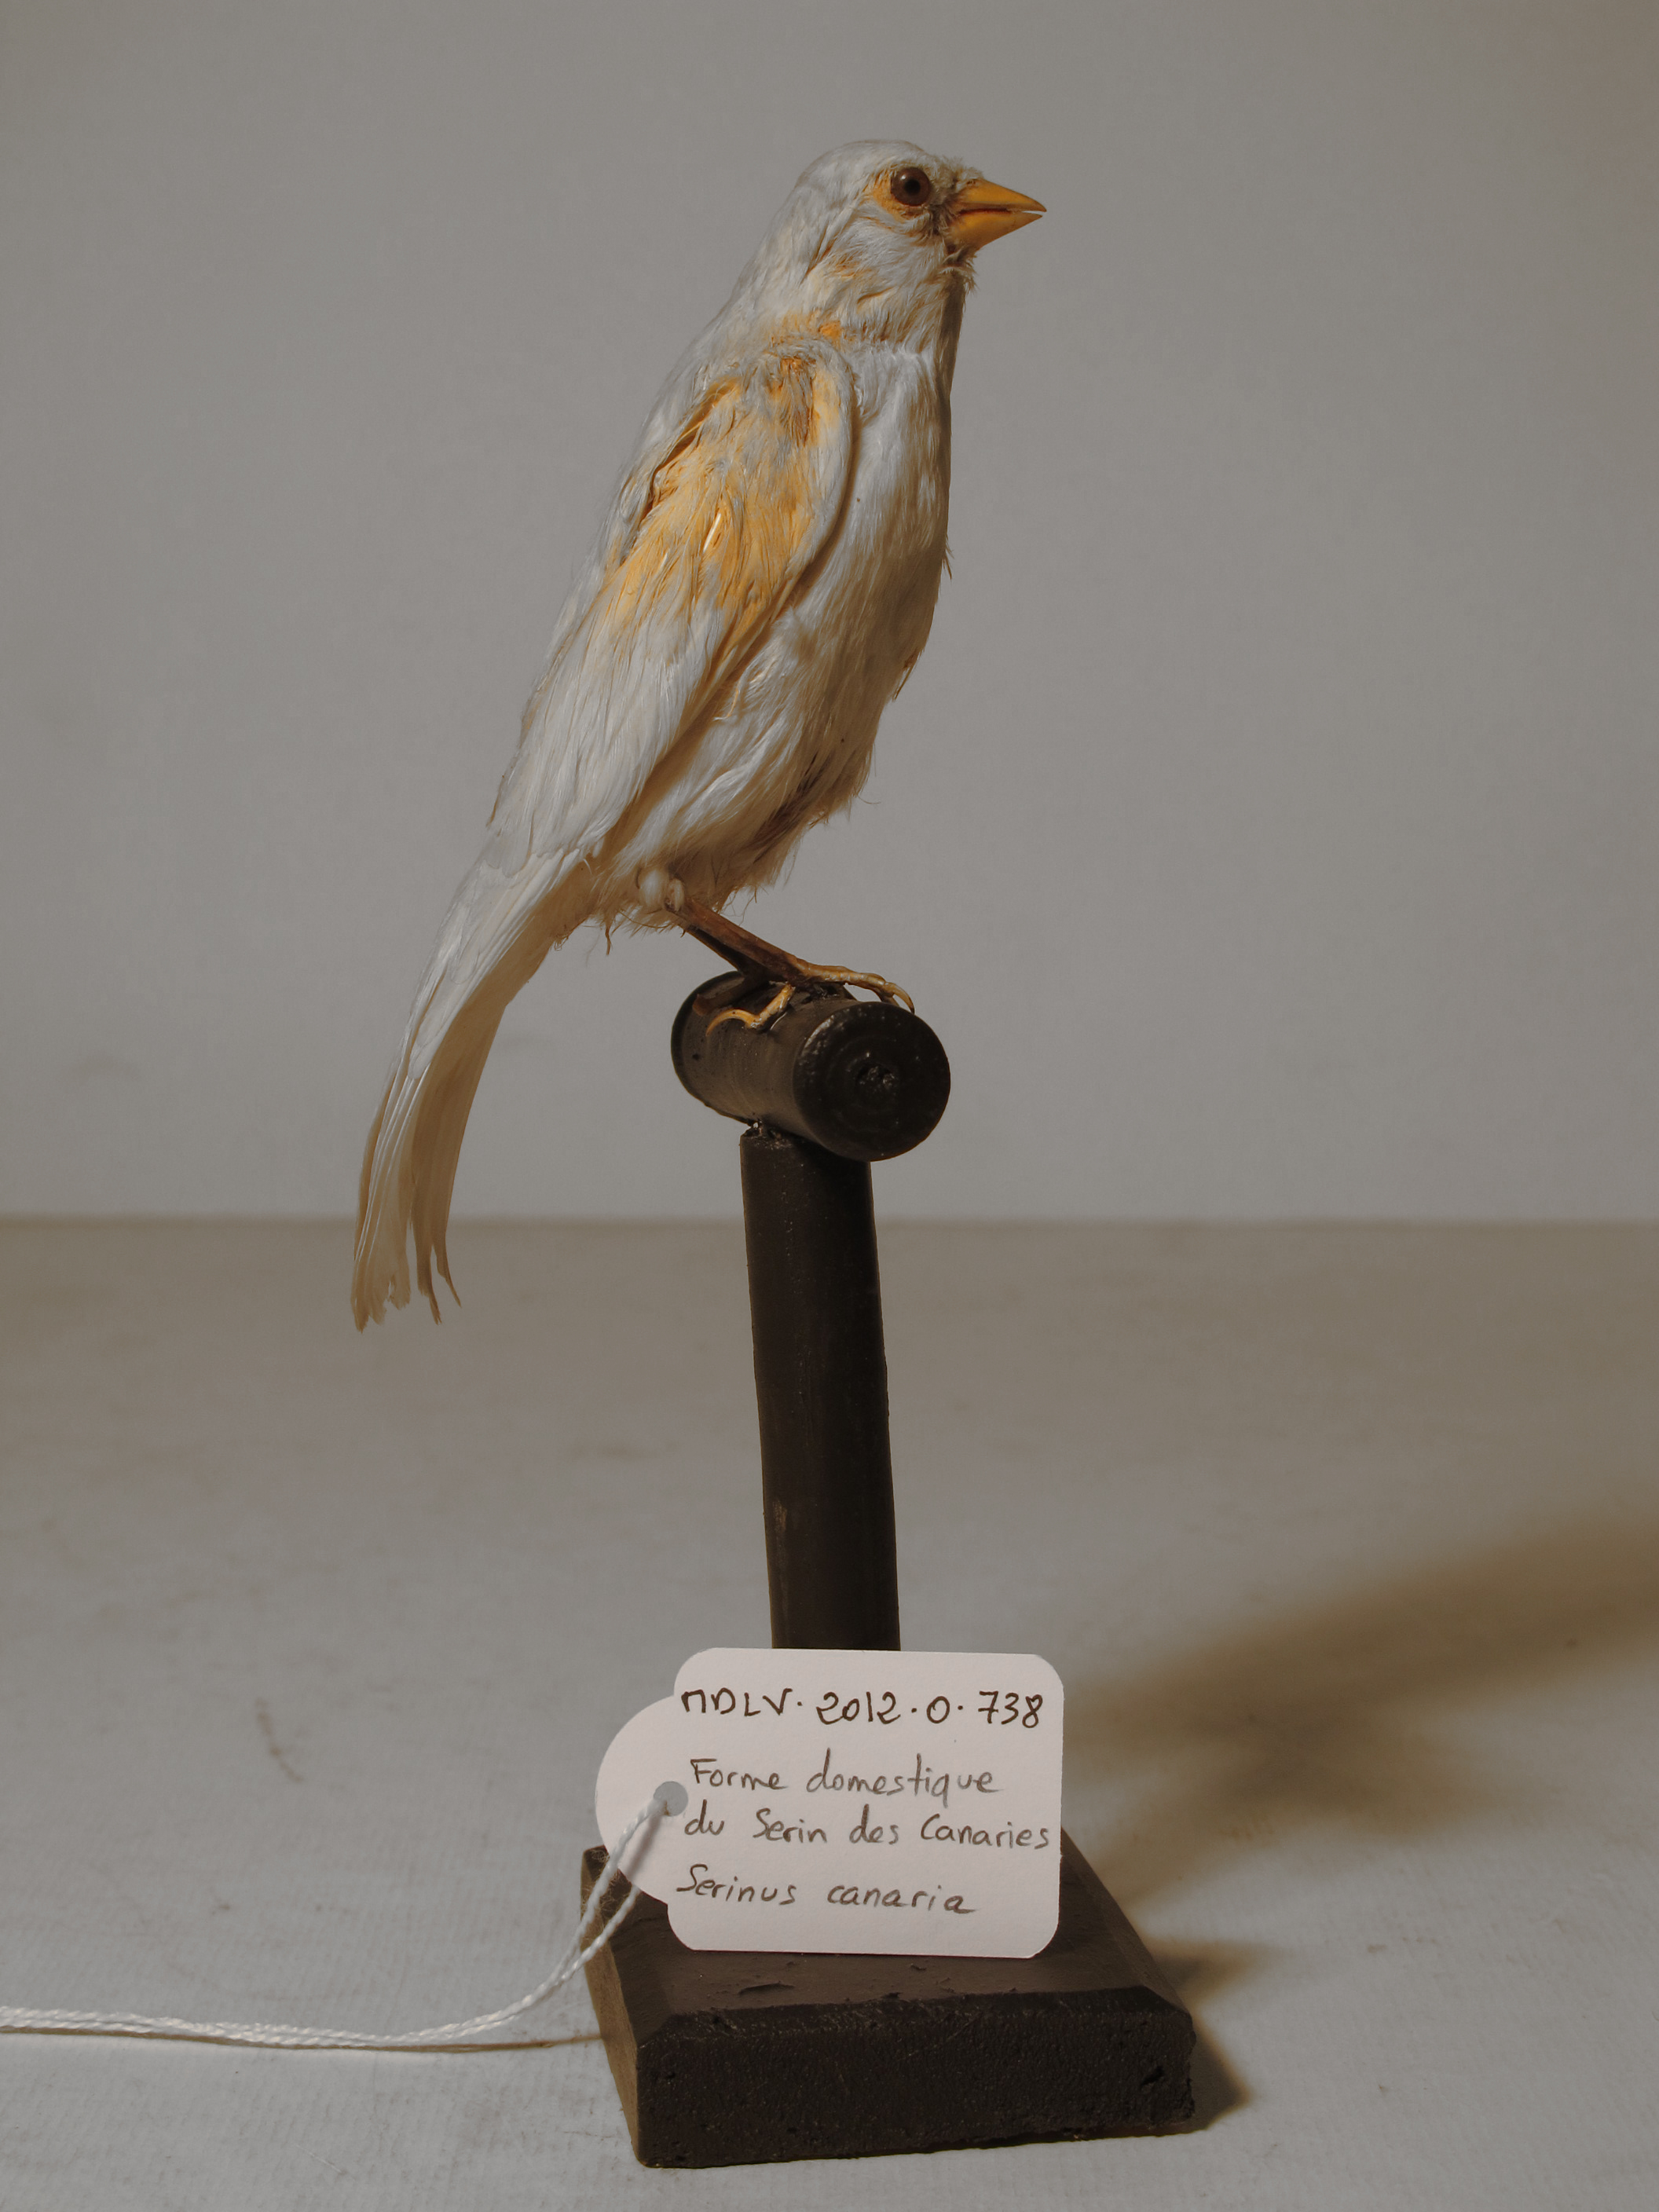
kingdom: Animalia
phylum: Chordata
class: Aves
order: Passeriformes
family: Fringillidae
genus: Serinus
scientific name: Serinus canaria
